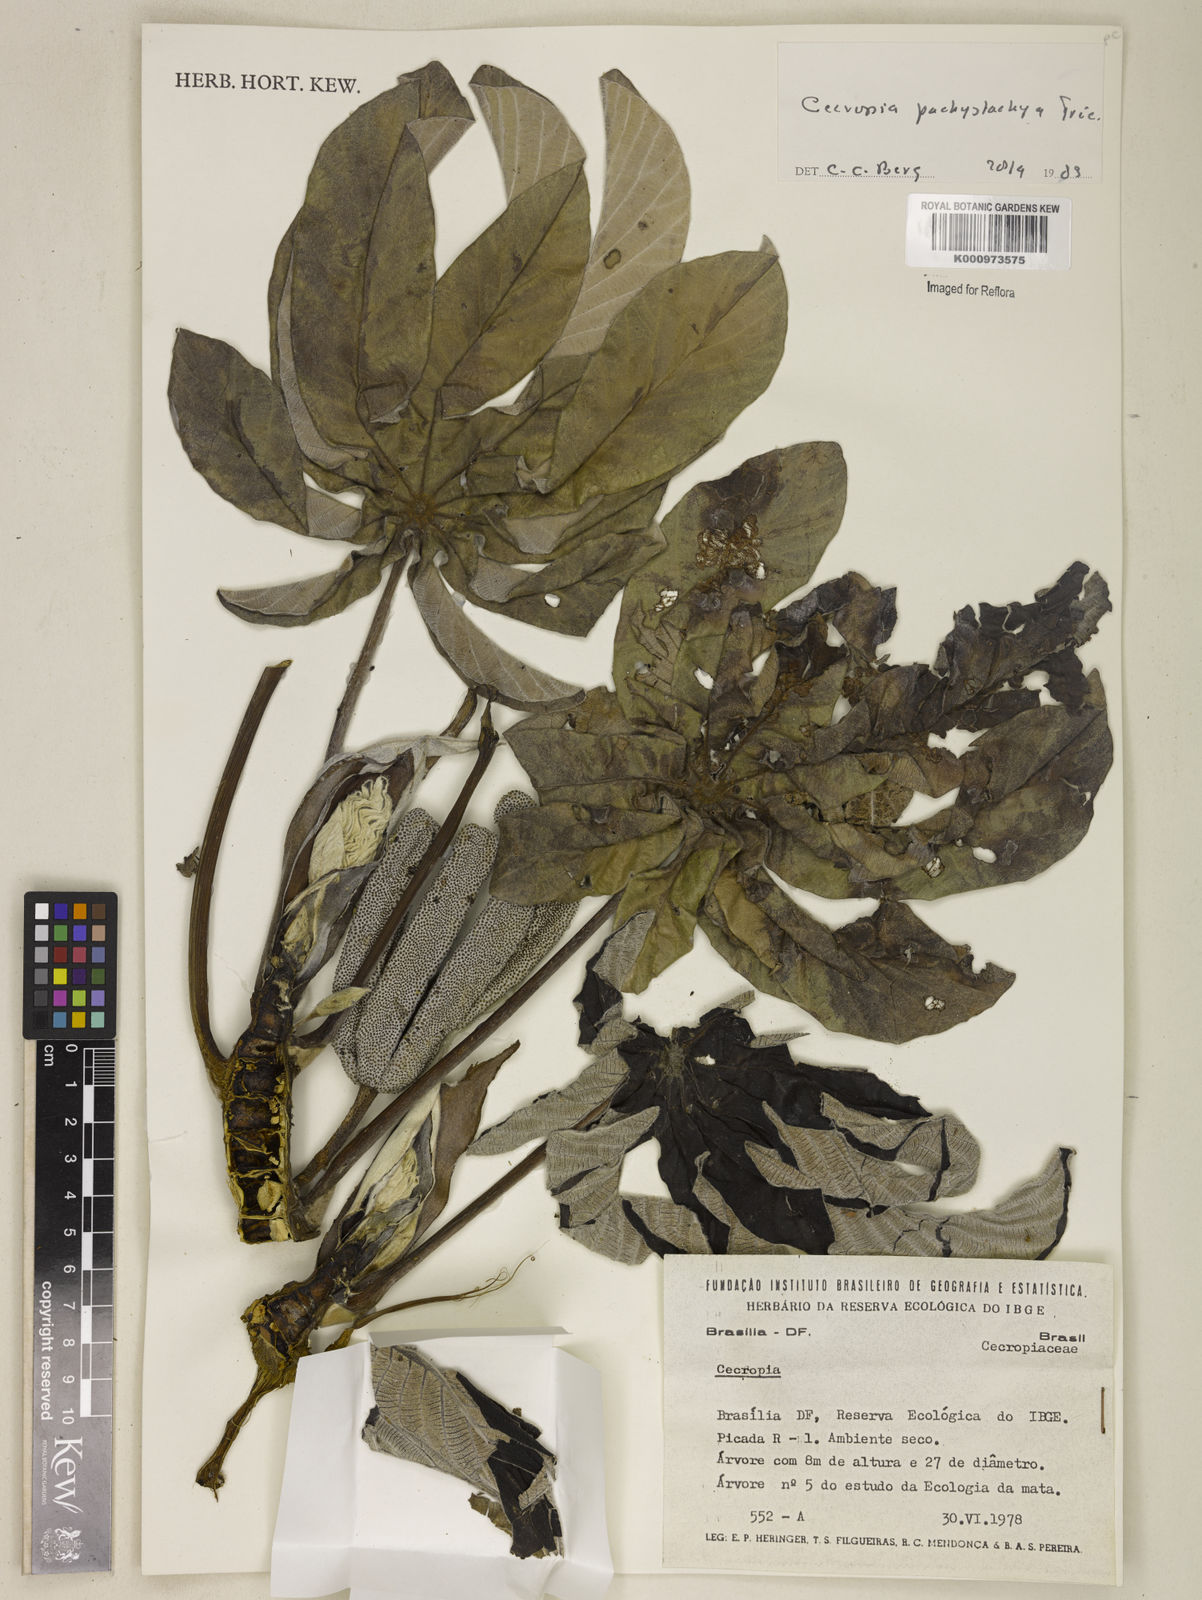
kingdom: Plantae
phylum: Tracheophyta
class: Magnoliopsida
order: Rosales
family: Urticaceae
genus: Cecropia
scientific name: Cecropia
